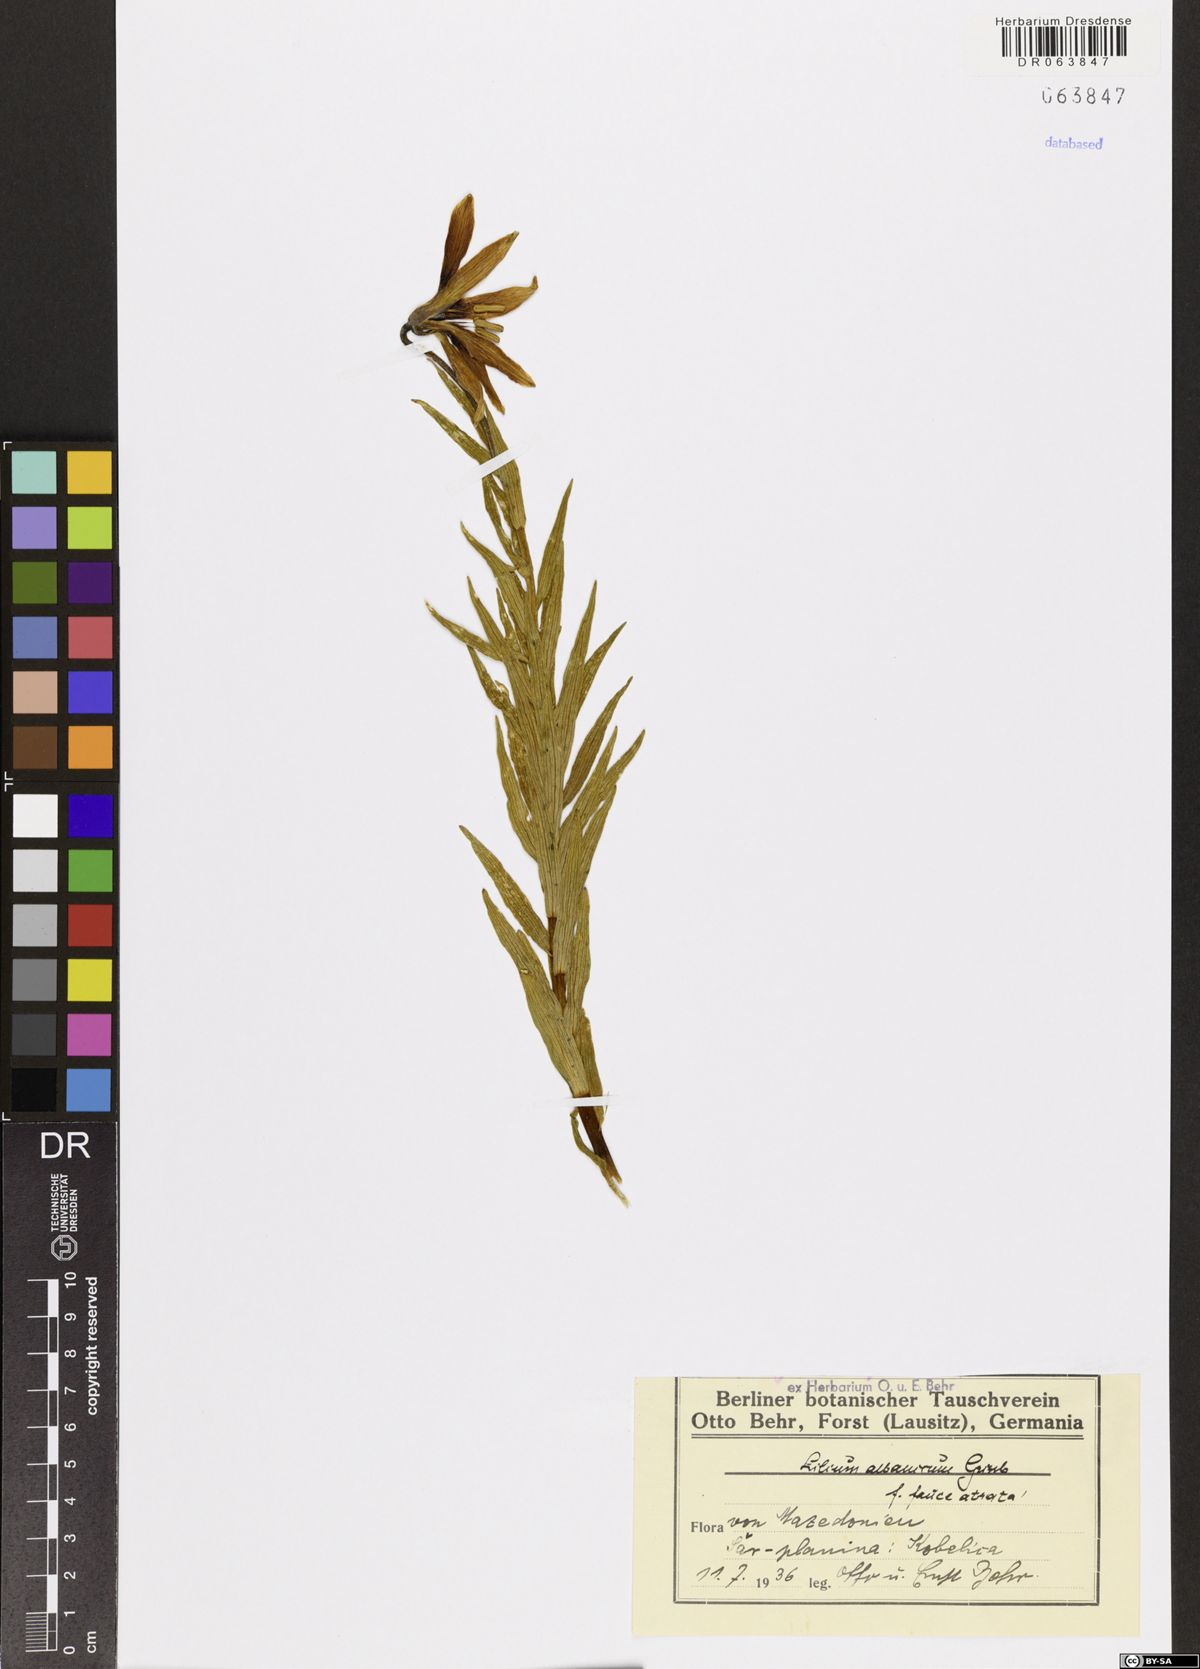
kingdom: Plantae
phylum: Tracheophyta
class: Liliopsida
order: Liliales
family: Liliaceae
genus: Lilium
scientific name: Lilium albanicum
